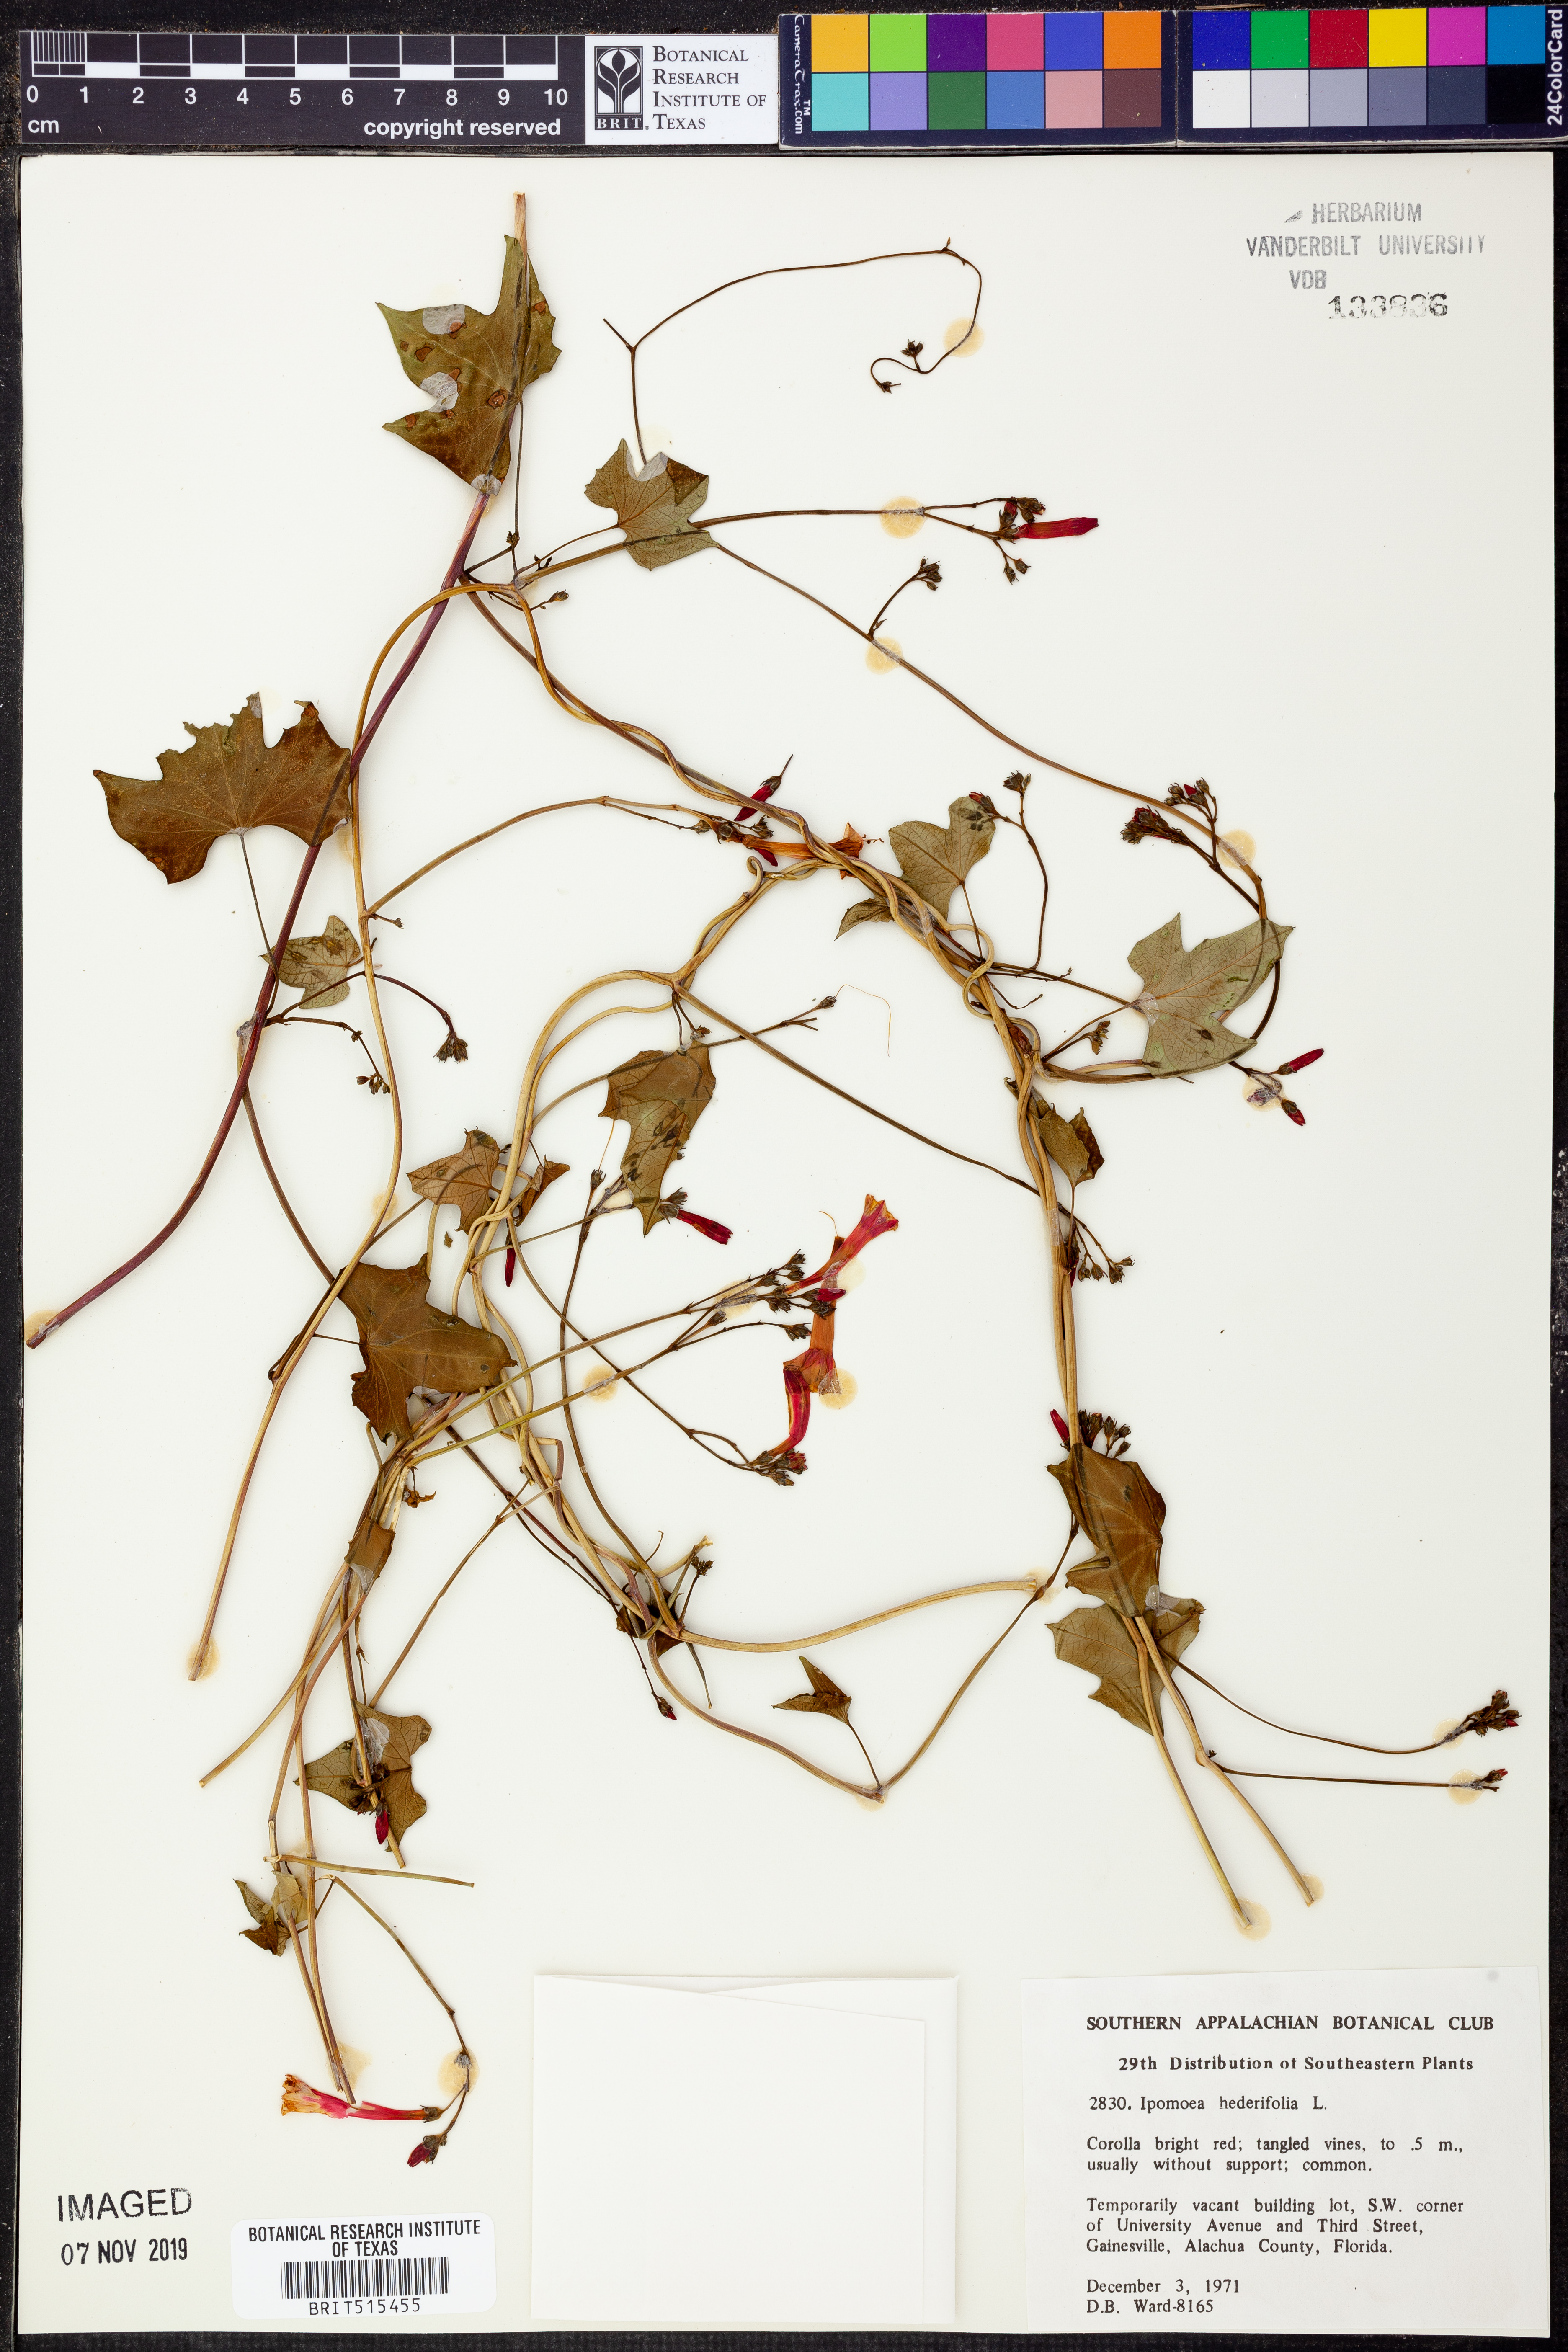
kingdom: Plantae
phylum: Tracheophyta
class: Magnoliopsida
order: Solanales
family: Convolvulaceae
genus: Ipomoea
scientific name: Ipomoea hederifolia
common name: Ivy-leaf morning-glory
